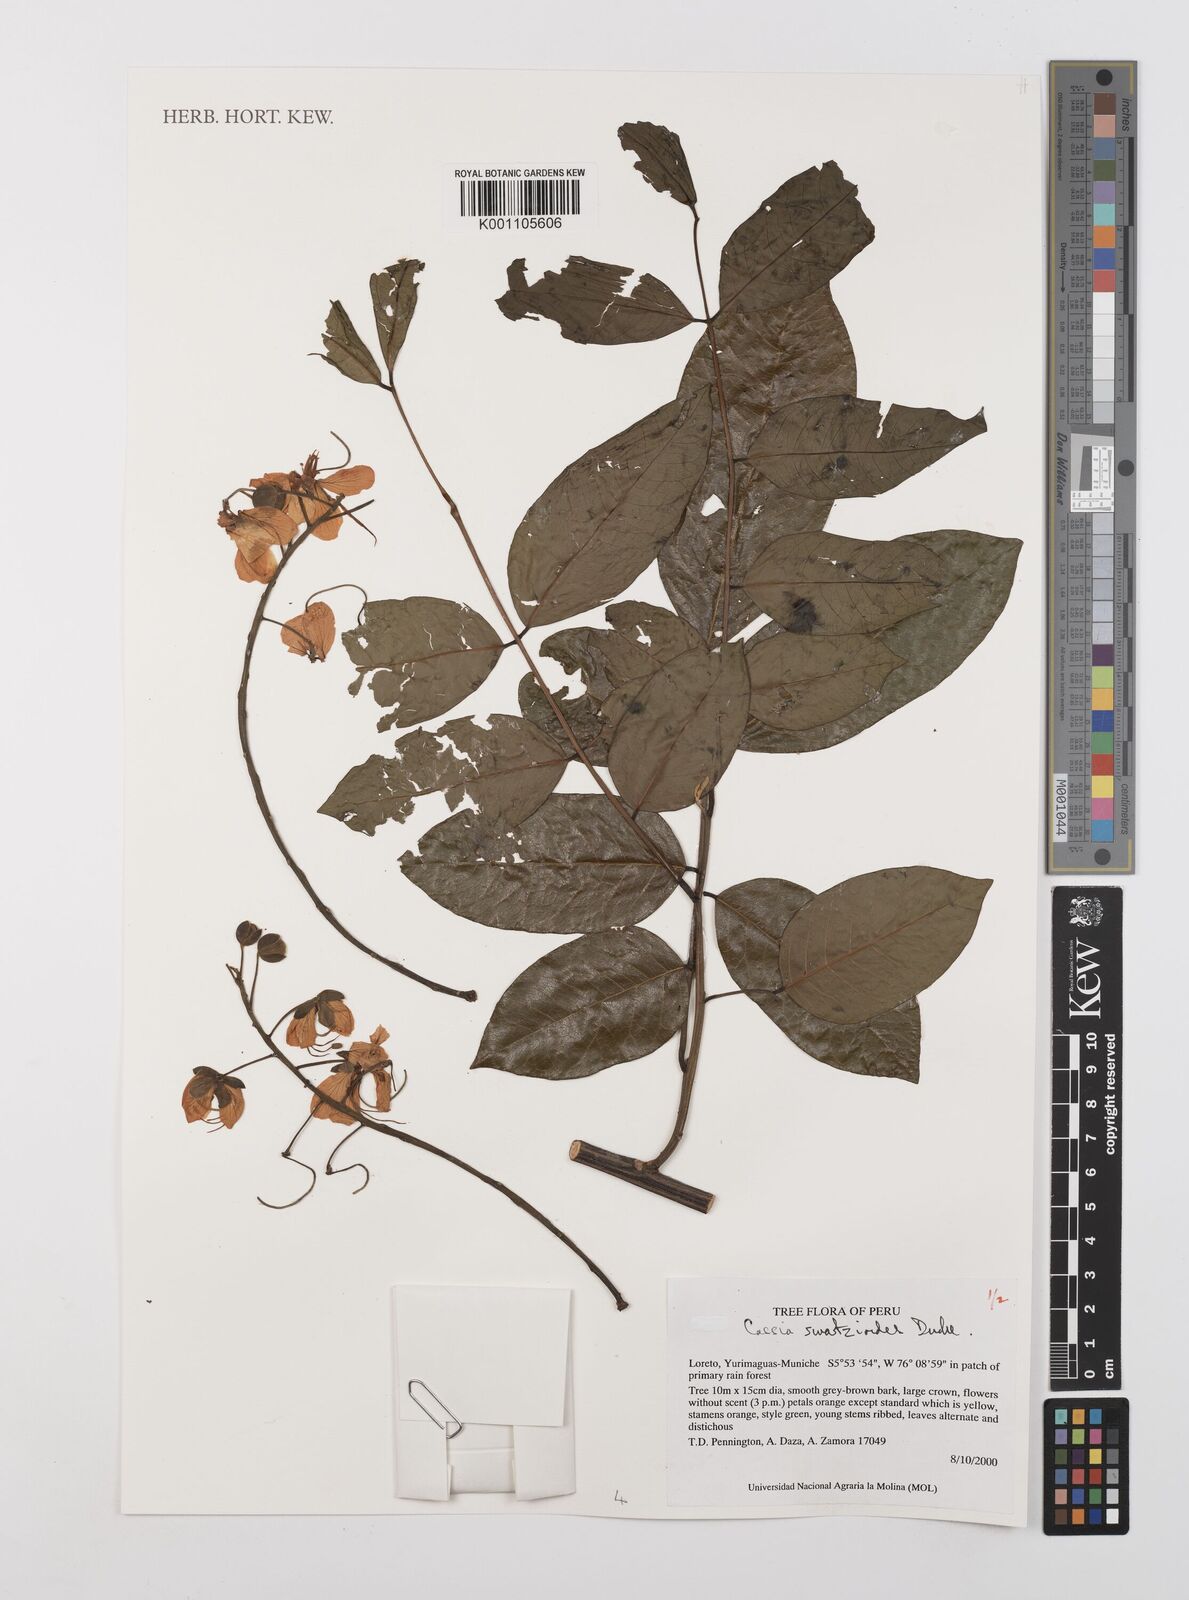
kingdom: Plantae
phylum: Tracheophyta
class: Magnoliopsida
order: Fabales
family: Fabaceae
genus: Cassia
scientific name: Cassia swartzioides
